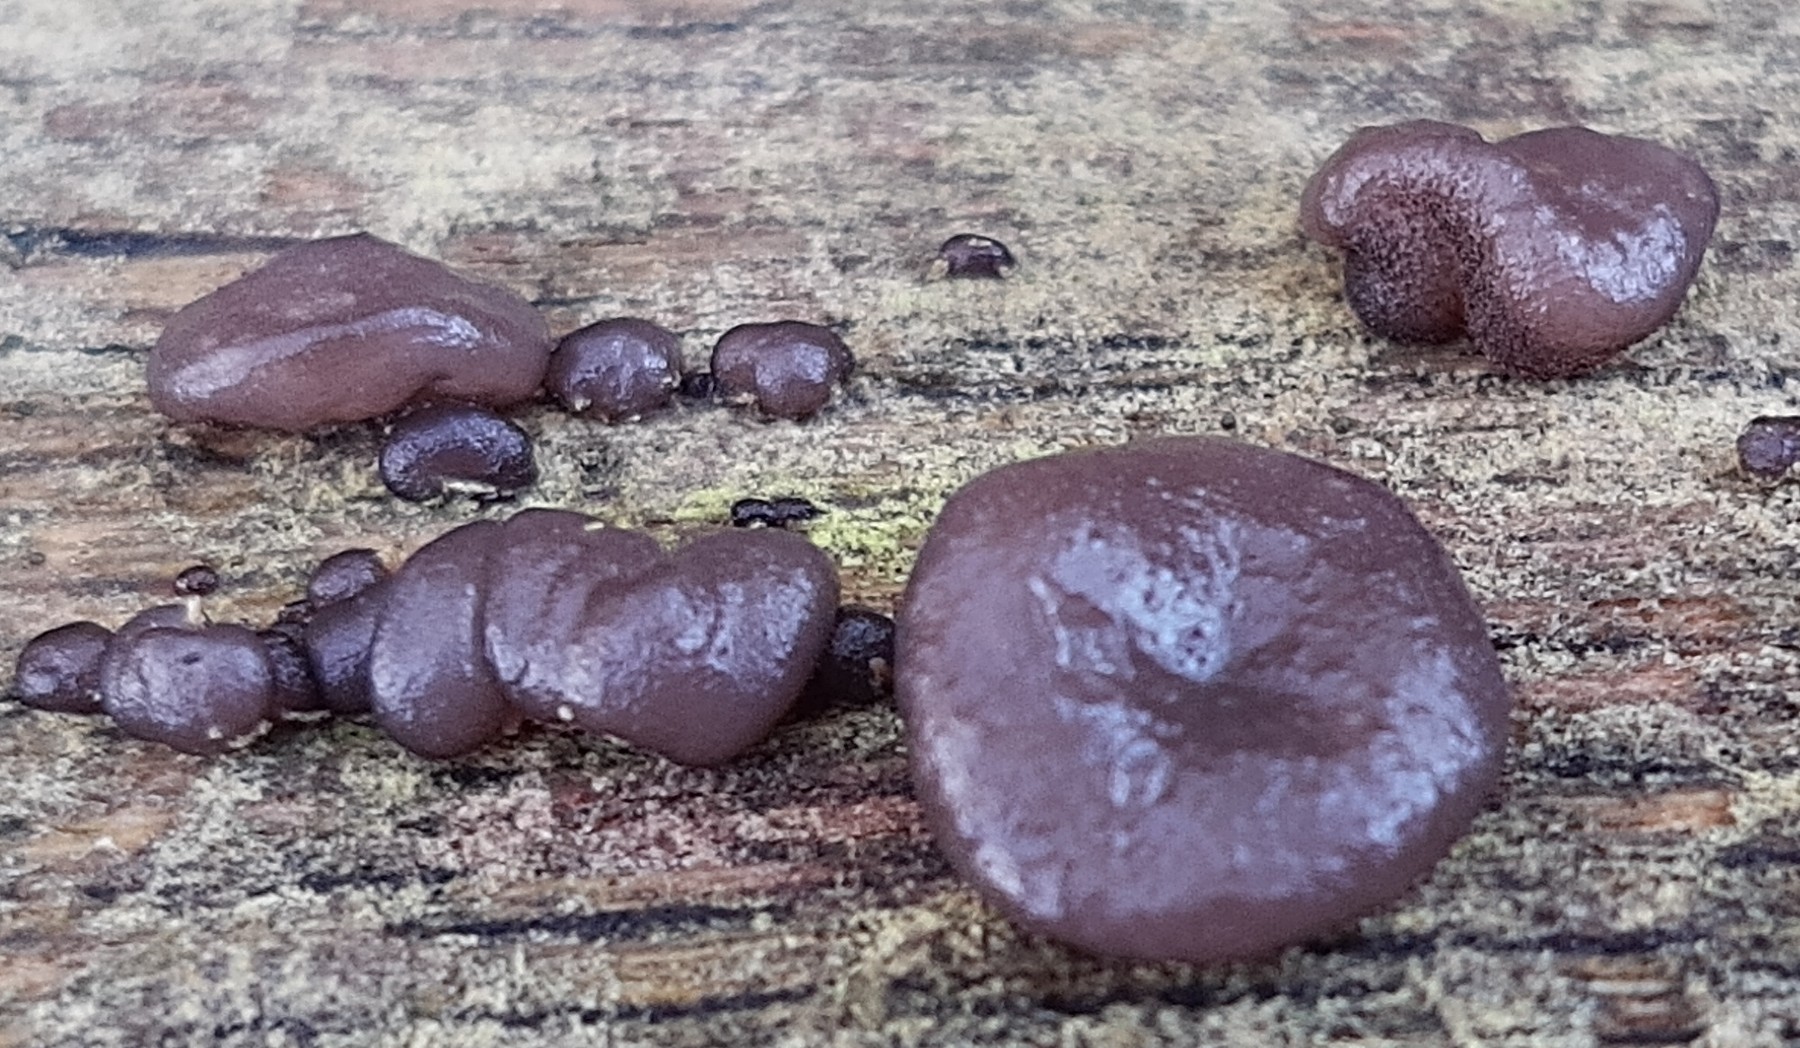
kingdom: Fungi
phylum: Basidiomycota
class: Agaricomycetes
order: Auriculariales
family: Auriculariaceae
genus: Exidia
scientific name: Exidia glandulosa
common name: ege-bævretop
